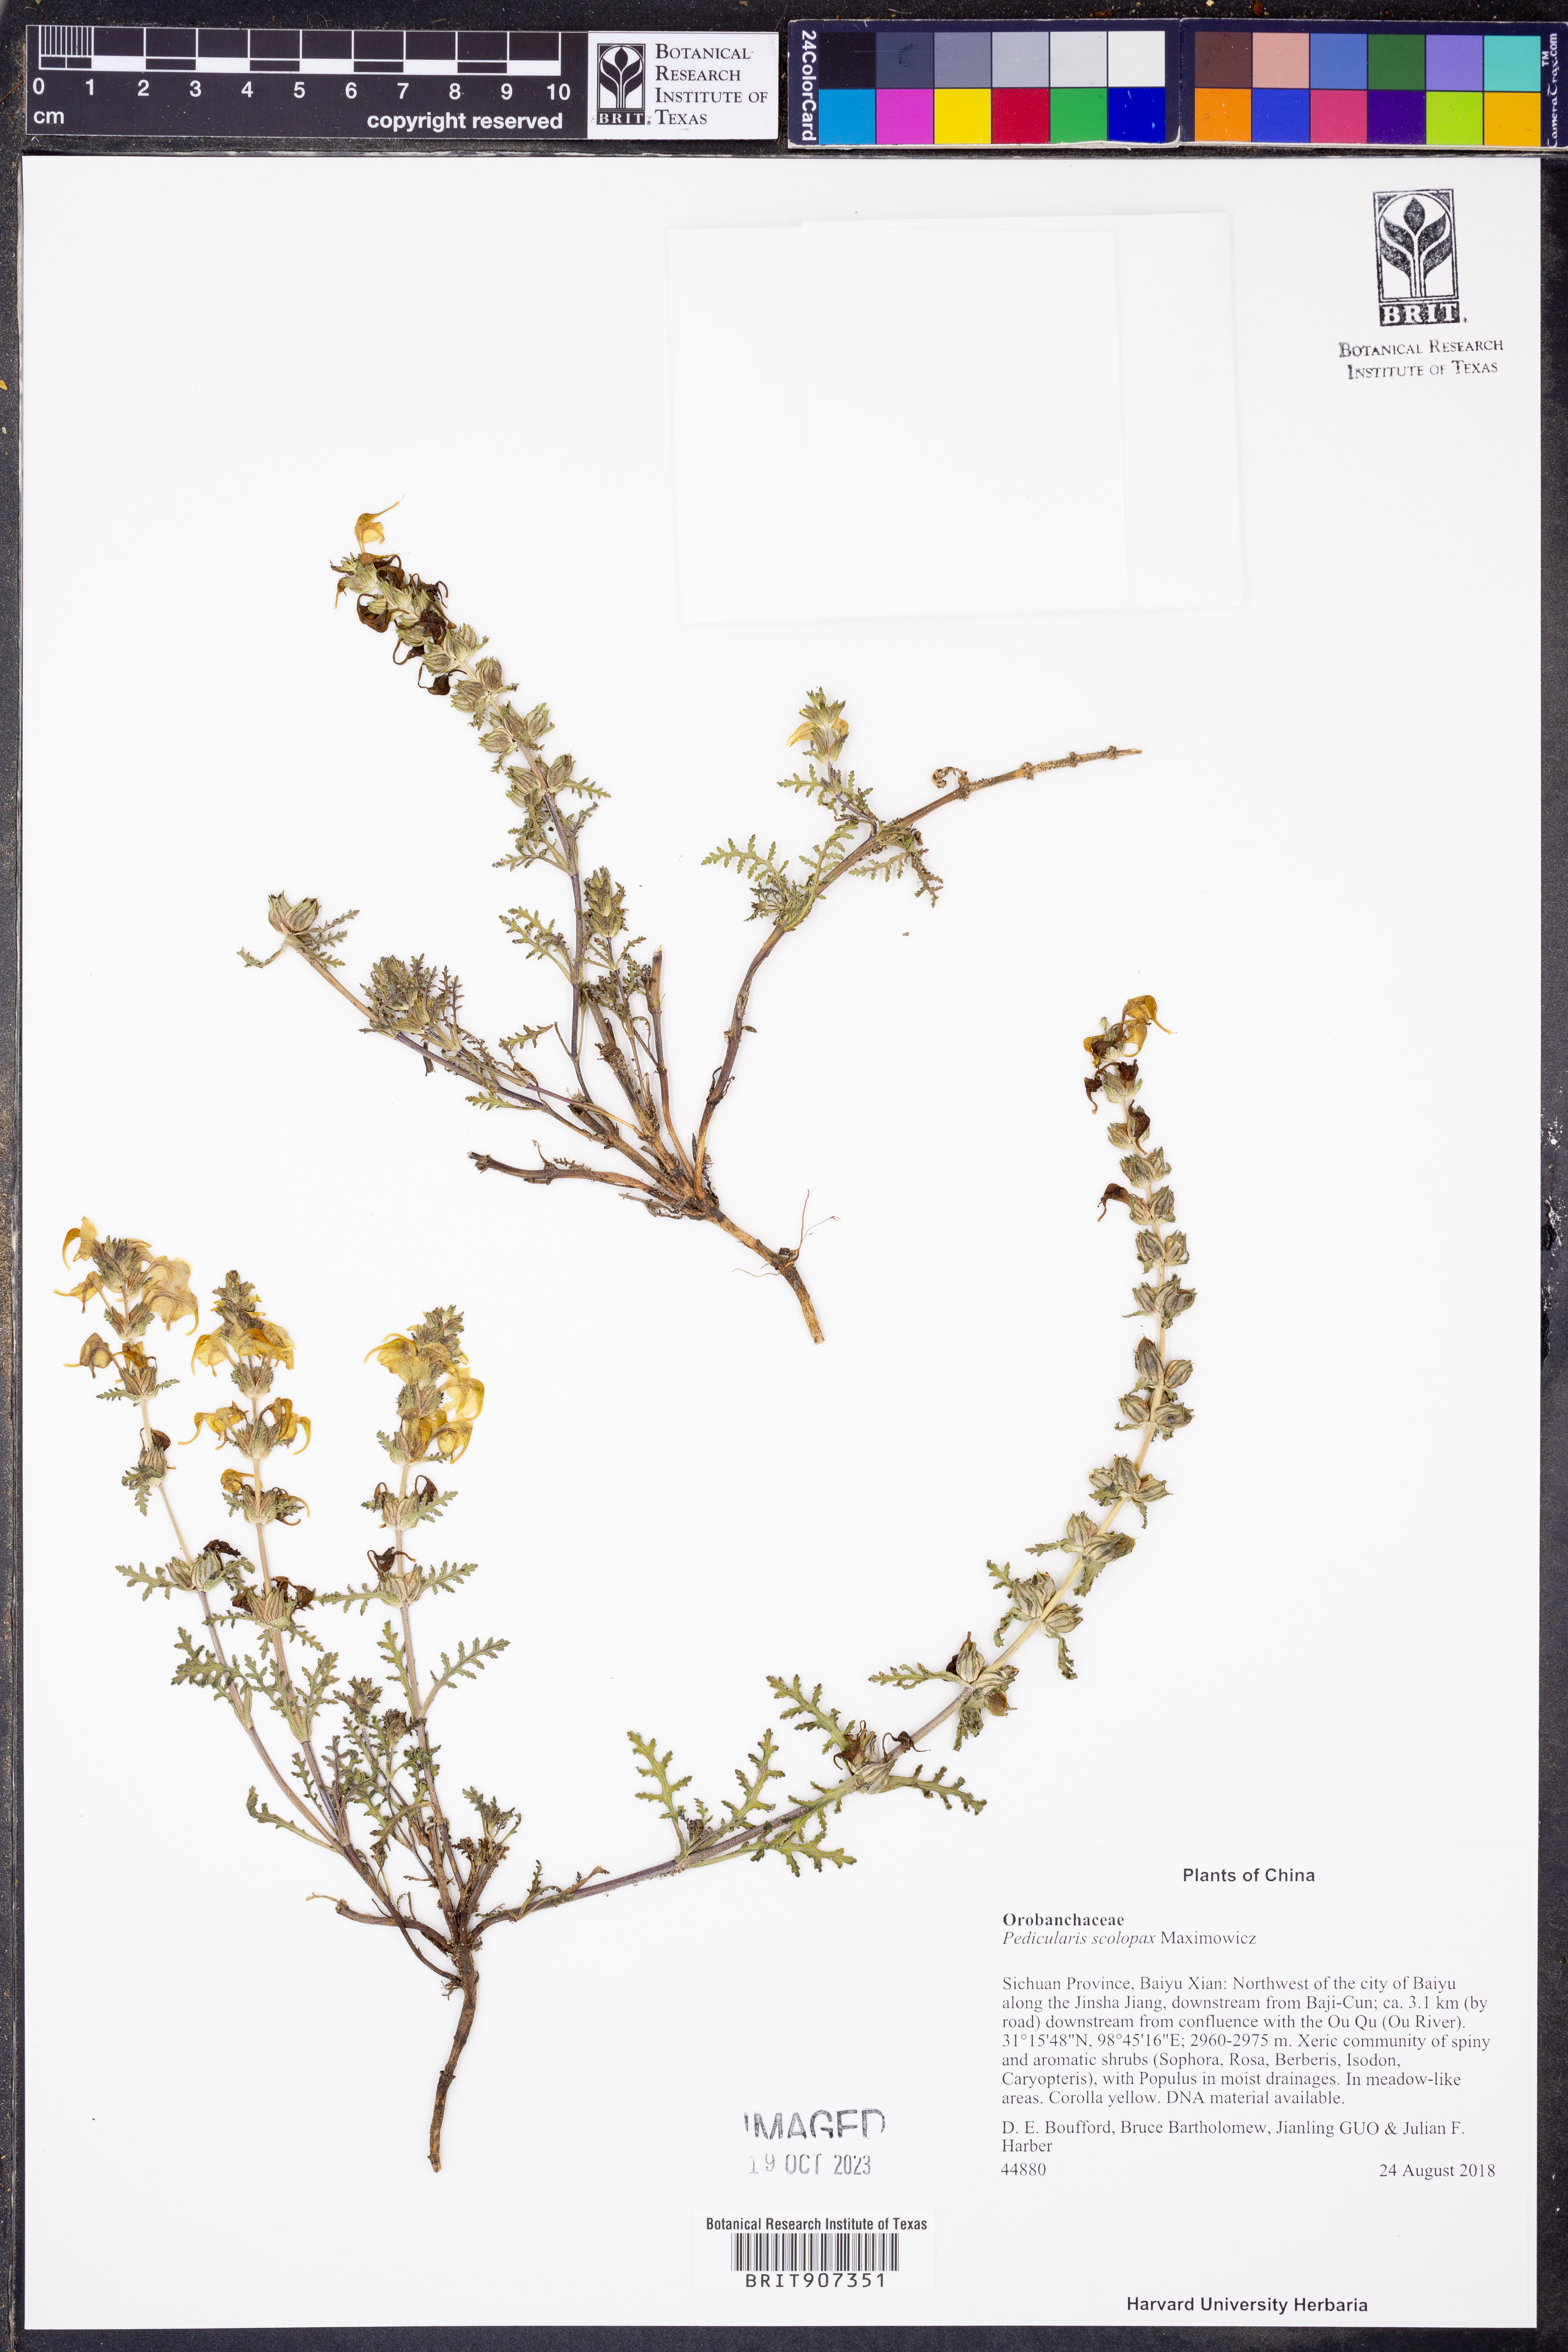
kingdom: Plantae
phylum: Tracheophyta
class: Magnoliopsida
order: Lamiales
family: Orobanchaceae
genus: Pedicularis
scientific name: Pedicularis scolopax
